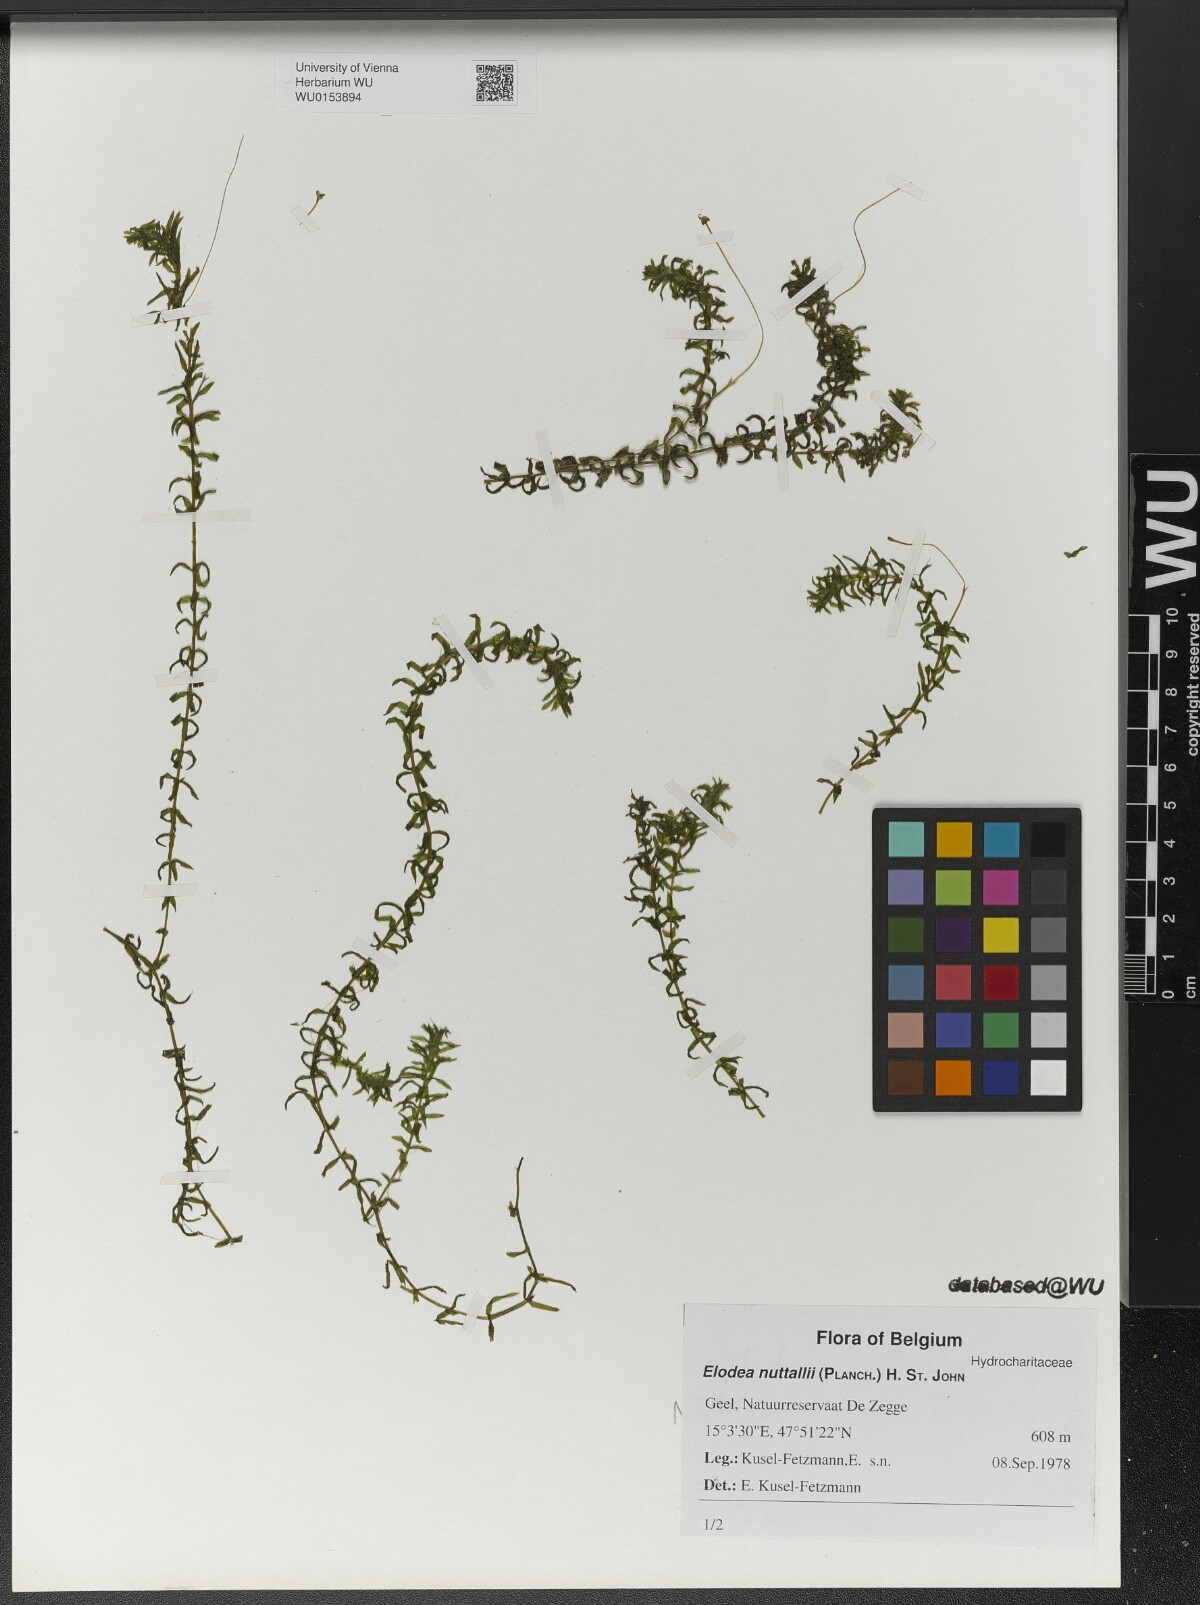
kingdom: Plantae
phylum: Tracheophyta
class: Liliopsida
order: Alismatales
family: Hydrocharitaceae
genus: Elodea
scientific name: Elodea nuttallii
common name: Nuttall's waterweed
